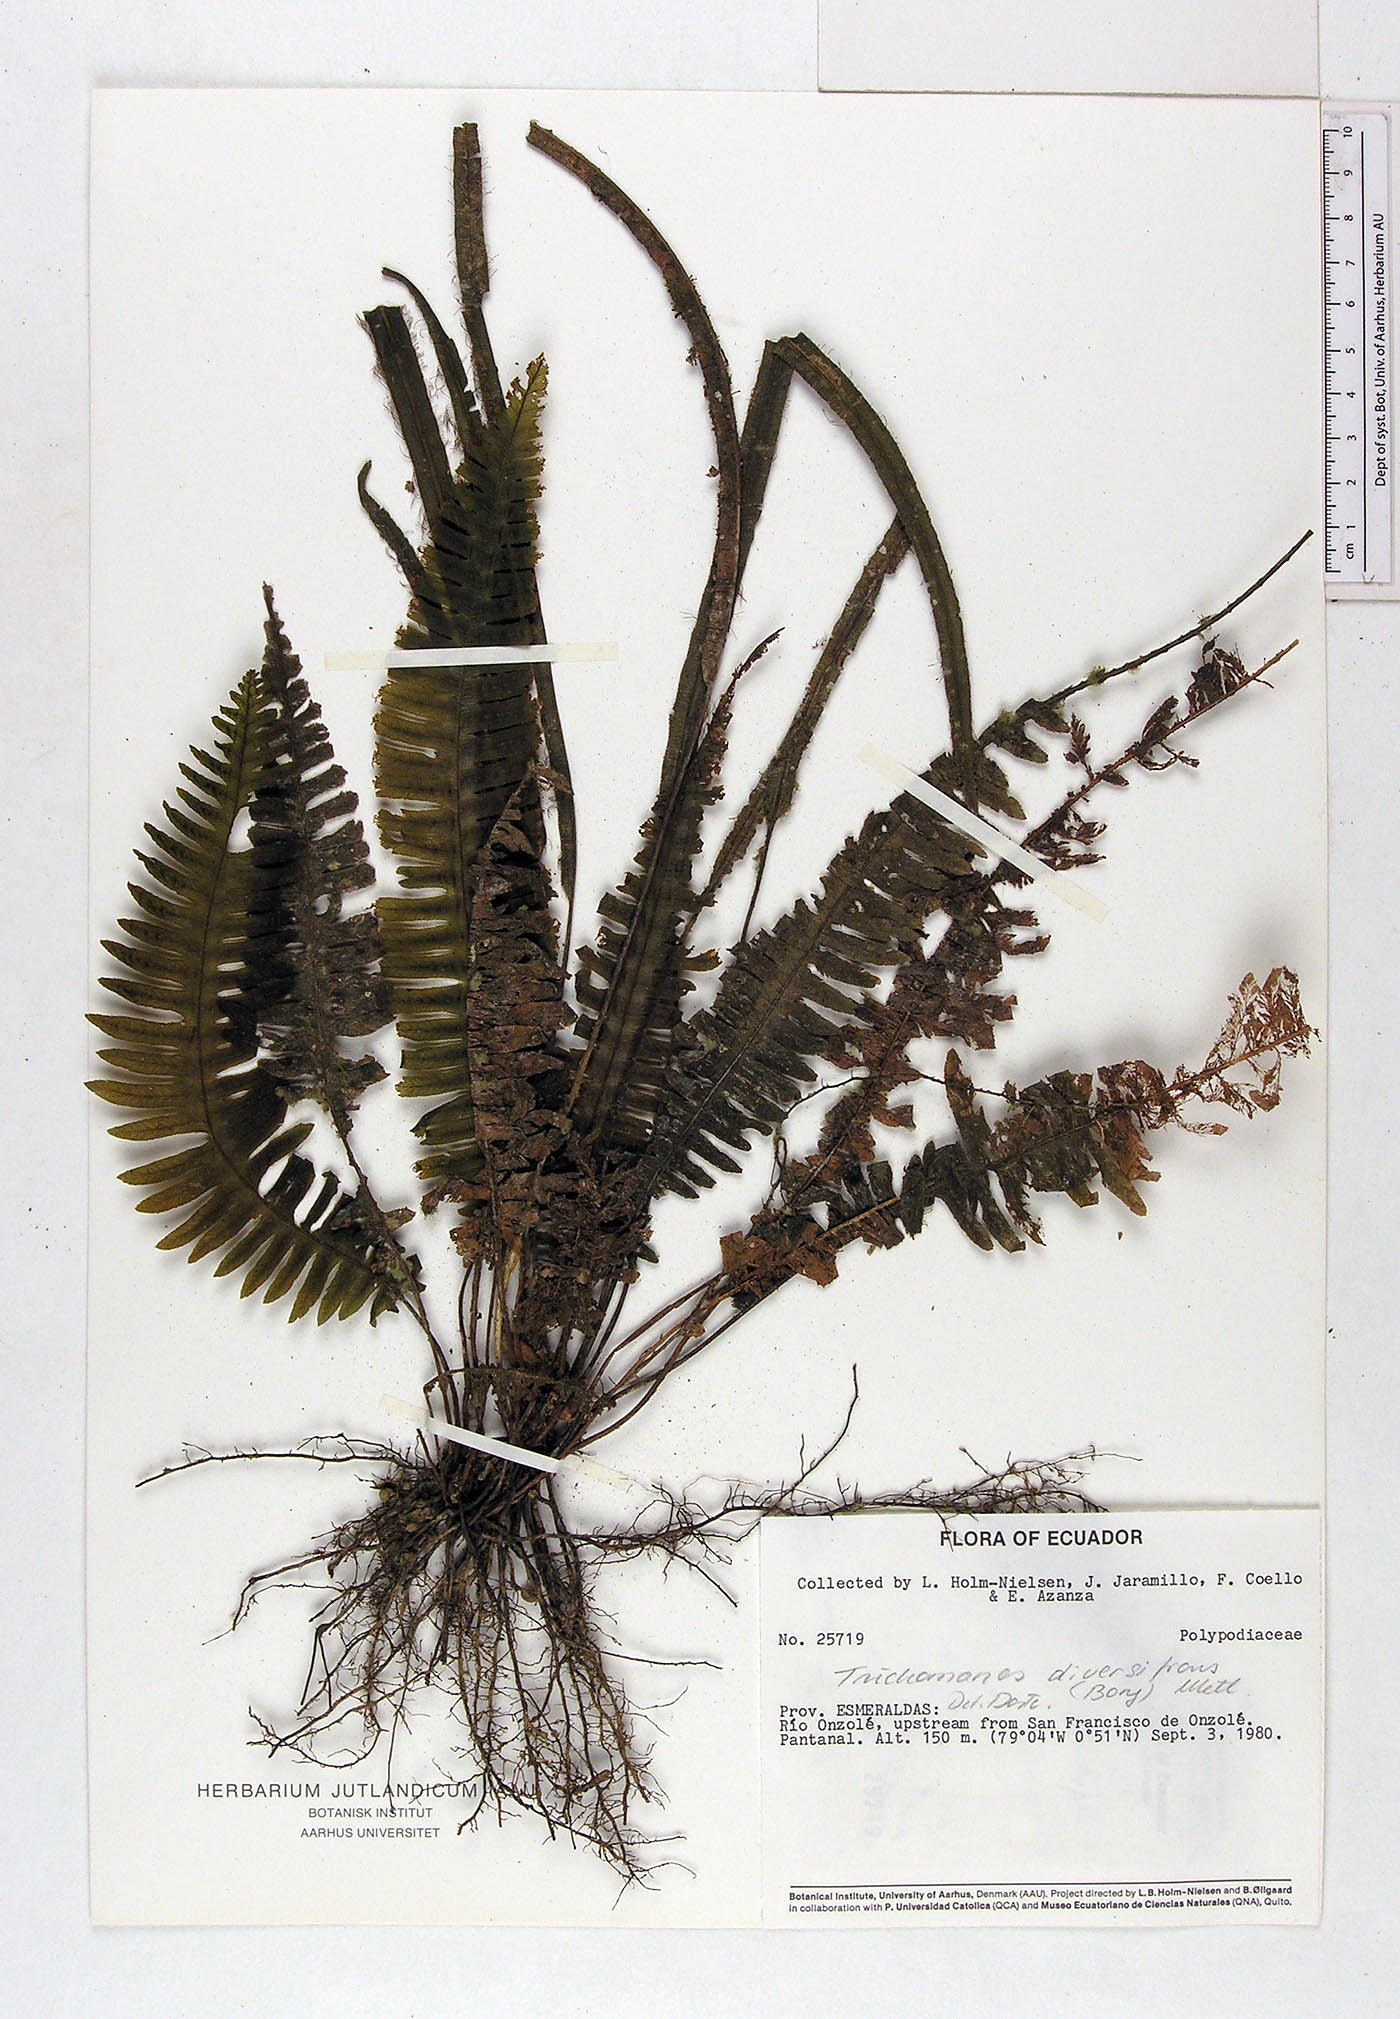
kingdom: Plantae
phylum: Tracheophyta
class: Polypodiopsida
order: Hymenophyllales
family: Hymenophyllaceae
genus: Trichomanes
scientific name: Trichomanes diversifrons
